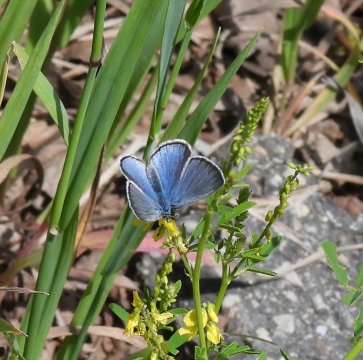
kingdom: Animalia
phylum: Arthropoda
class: Insecta
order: Lepidoptera
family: Lycaenidae
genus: Glaucopsyche
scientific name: Glaucopsyche lygdamus
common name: Silvery Blue
